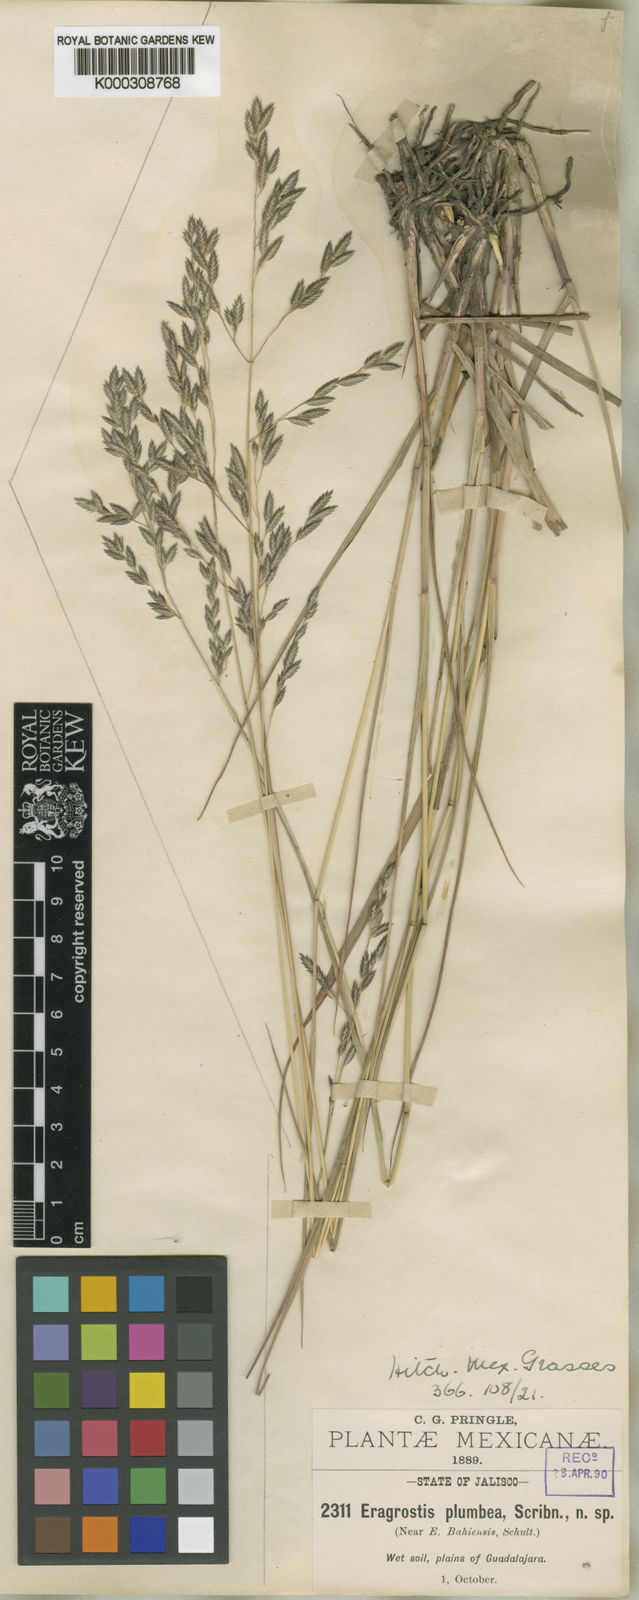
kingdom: Plantae
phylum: Tracheophyta
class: Liliopsida
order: Poales
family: Poaceae
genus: Eragrostis
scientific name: Eragrostis
